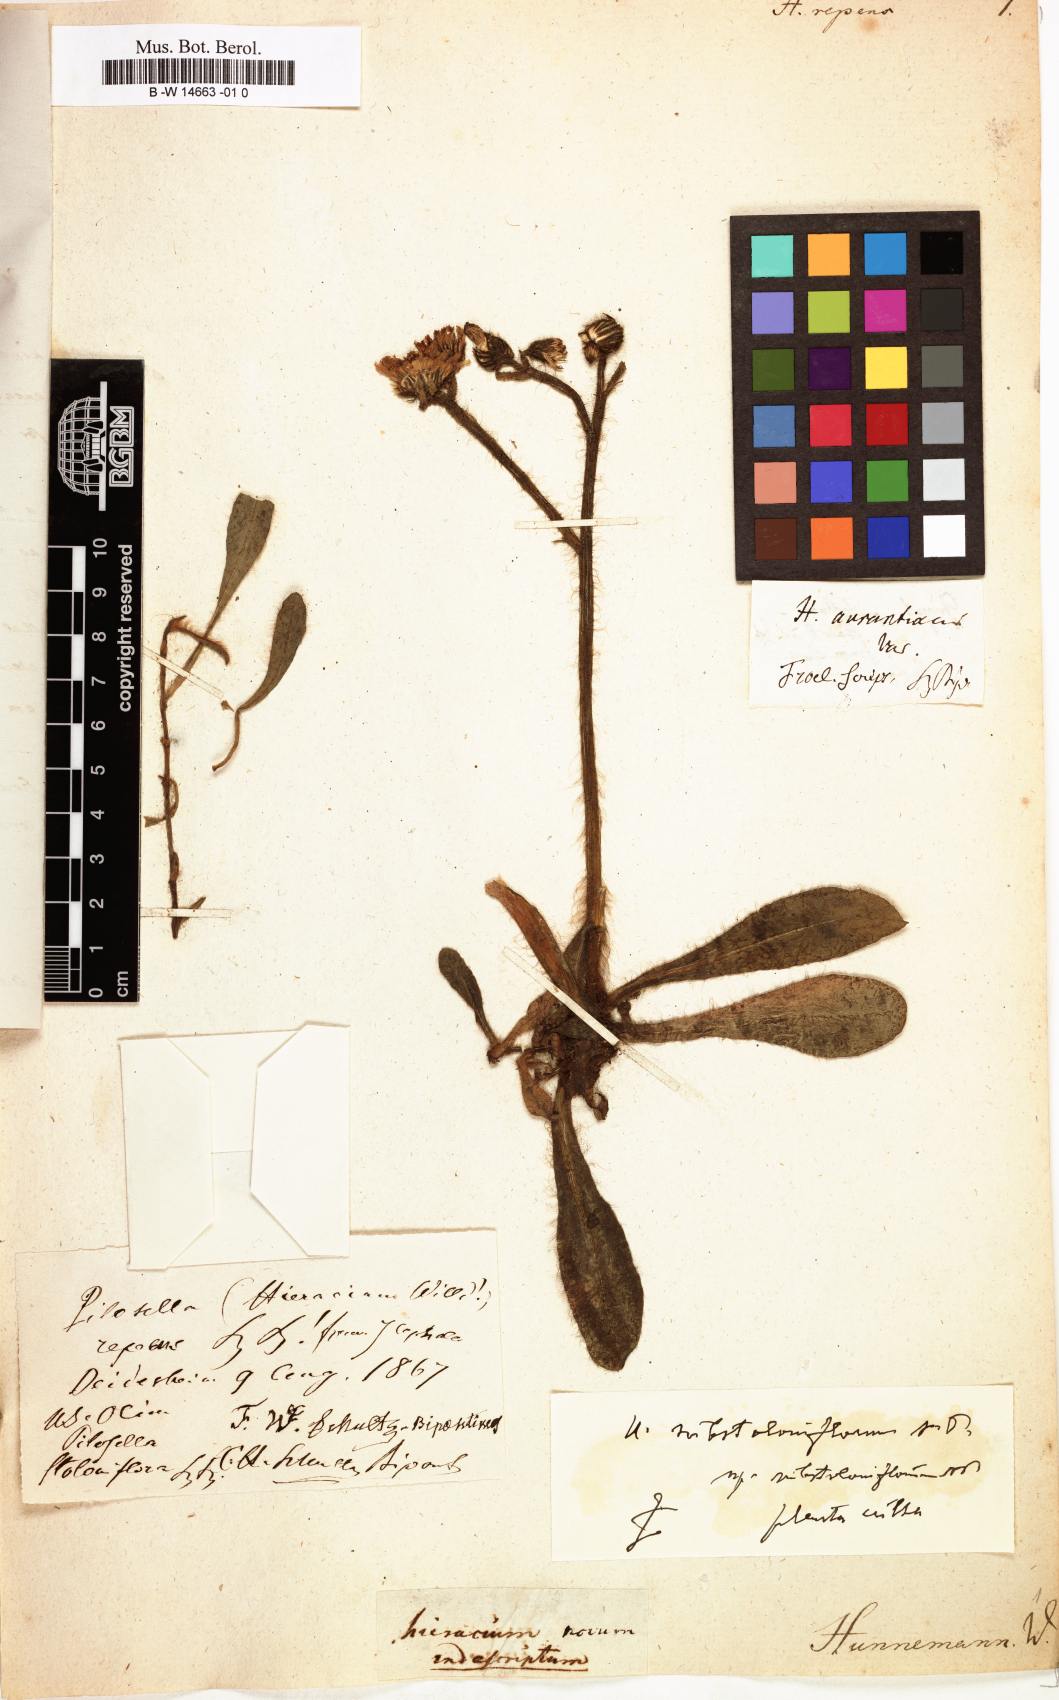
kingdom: Plantae
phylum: Tracheophyta
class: Magnoliopsida
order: Asterales
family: Asteraceae
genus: Hieracium
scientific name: Hieracium repens
